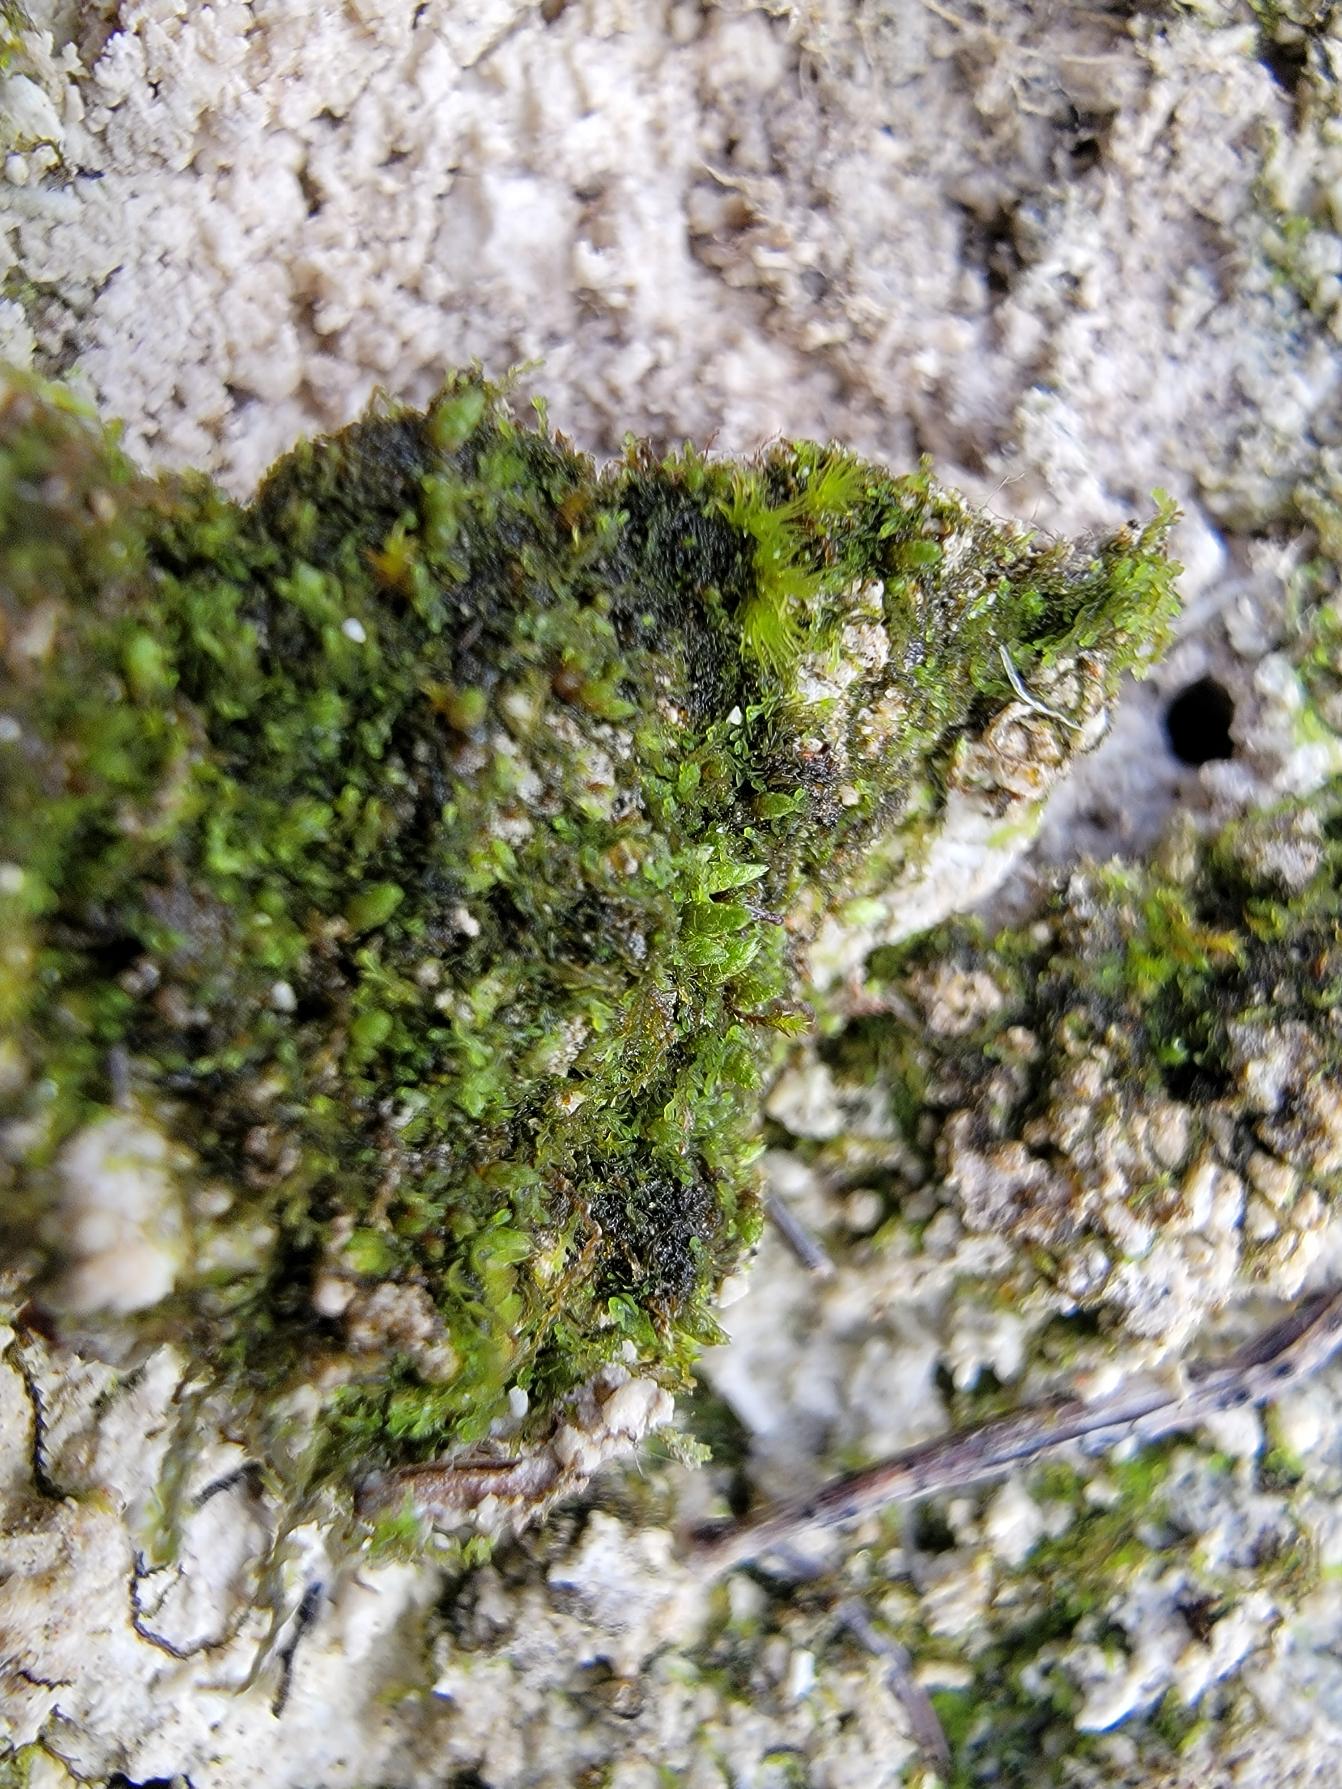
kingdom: Plantae
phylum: Bryophyta
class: Bryopsida
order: Bryales
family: Bryaceae
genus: Bryum
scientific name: Bryum funckii
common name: Løgformet bryum
